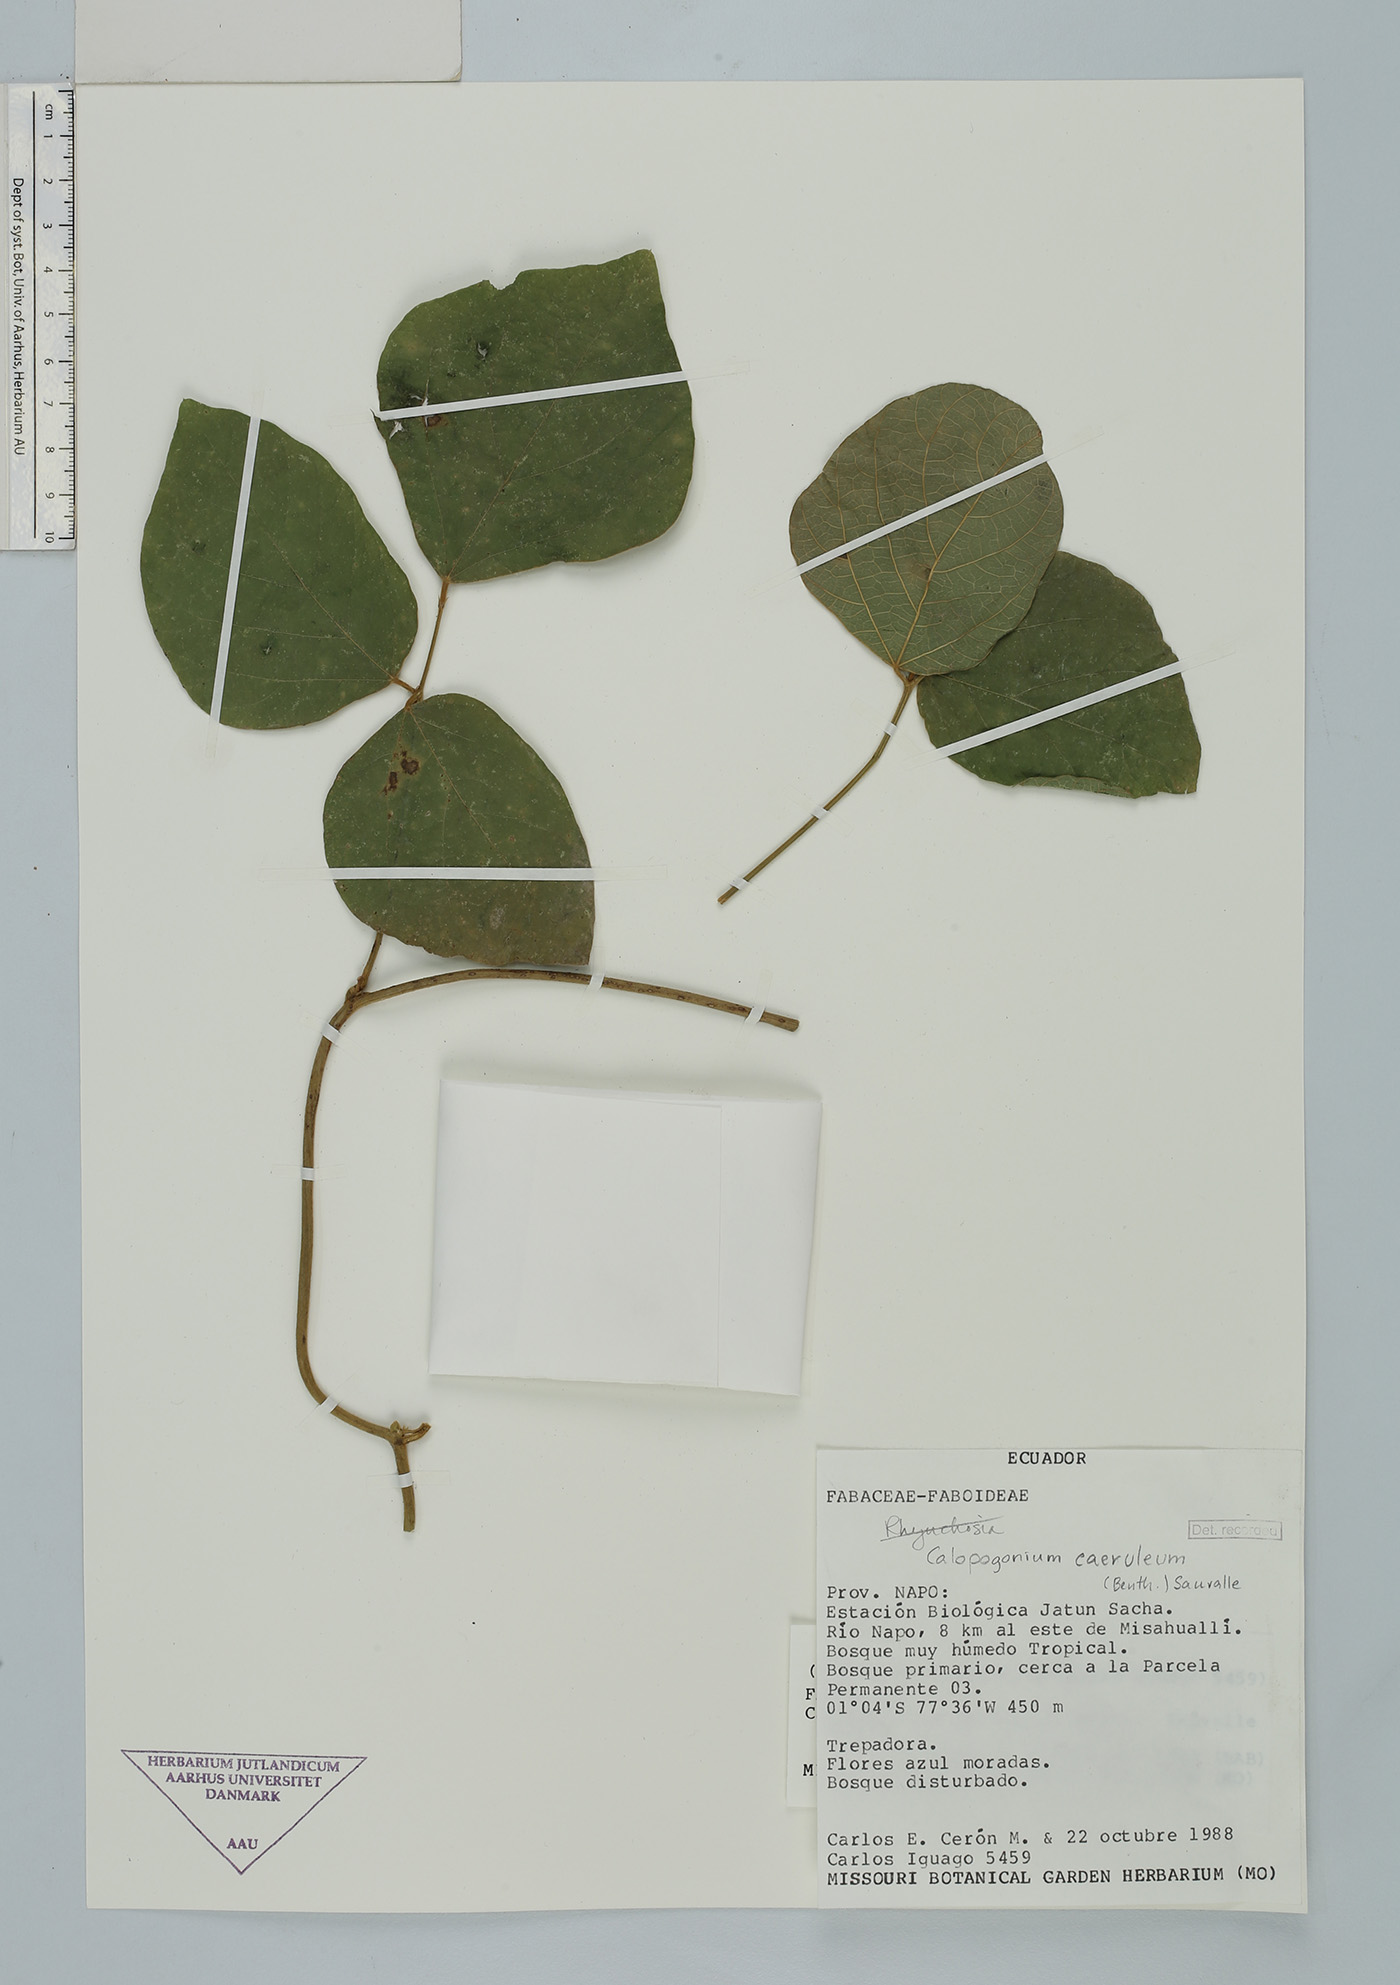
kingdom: Plantae
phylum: Tracheophyta
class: Magnoliopsida
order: Fabales
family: Fabaceae
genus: Calopogonium
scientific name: Calopogonium caeruleum
